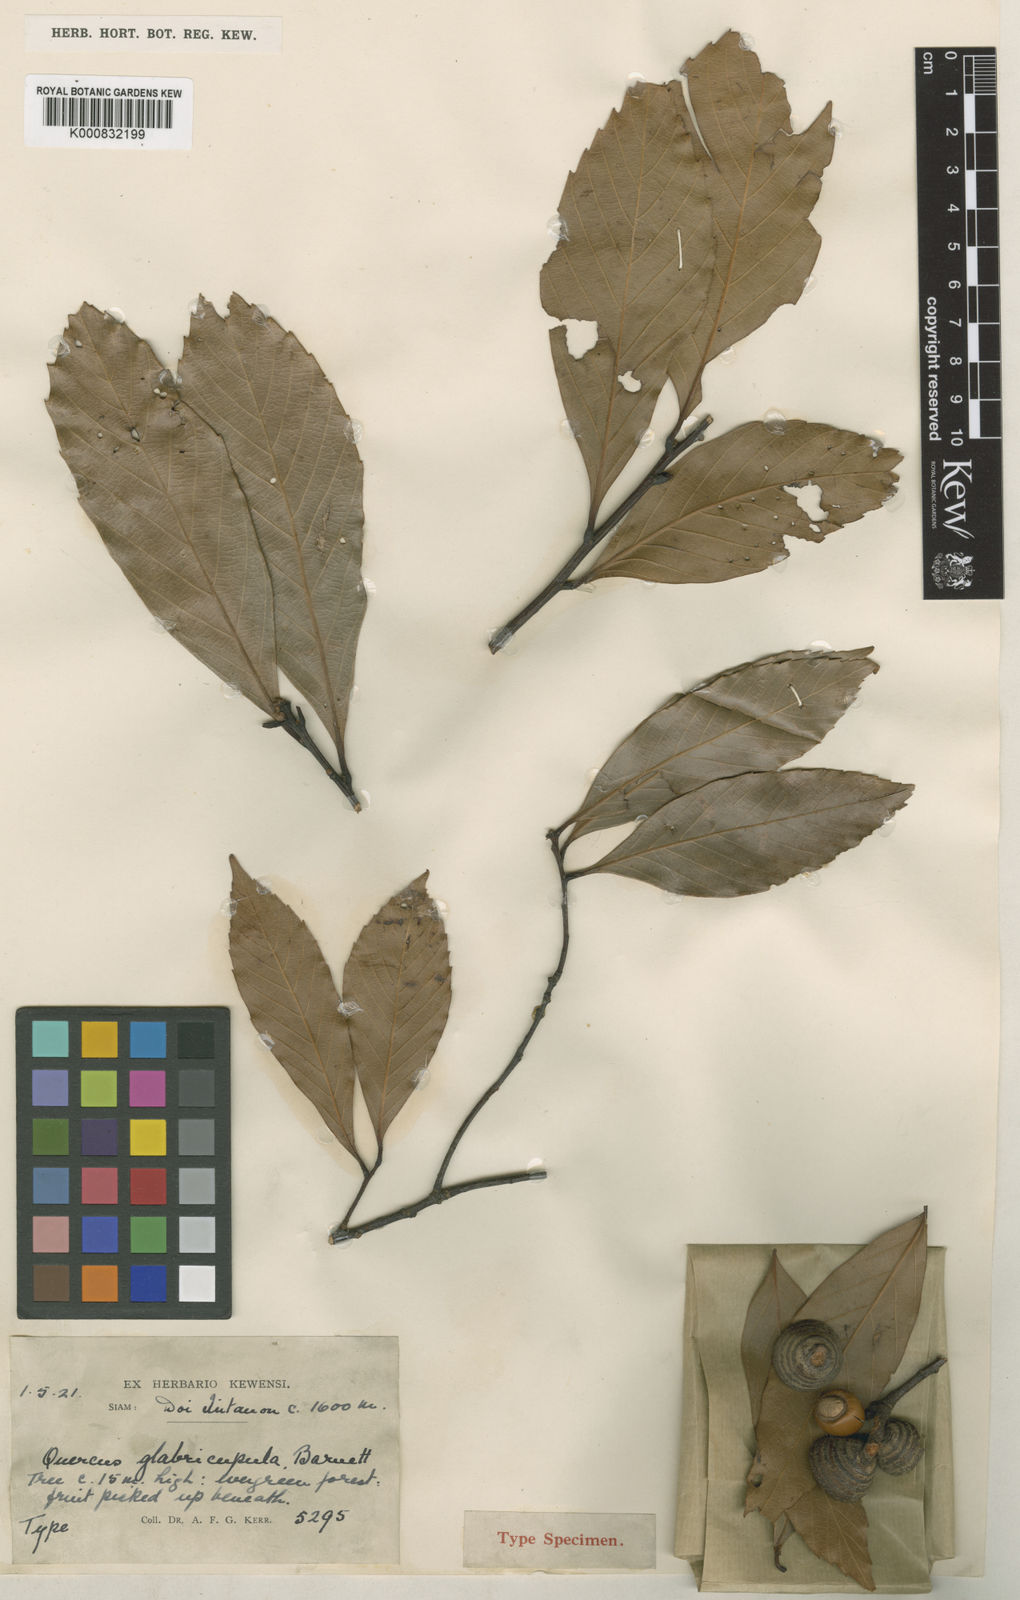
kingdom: Plantae
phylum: Tracheophyta
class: Magnoliopsida
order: Fagales
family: Fagaceae
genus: Quercus
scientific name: Quercus augustini
